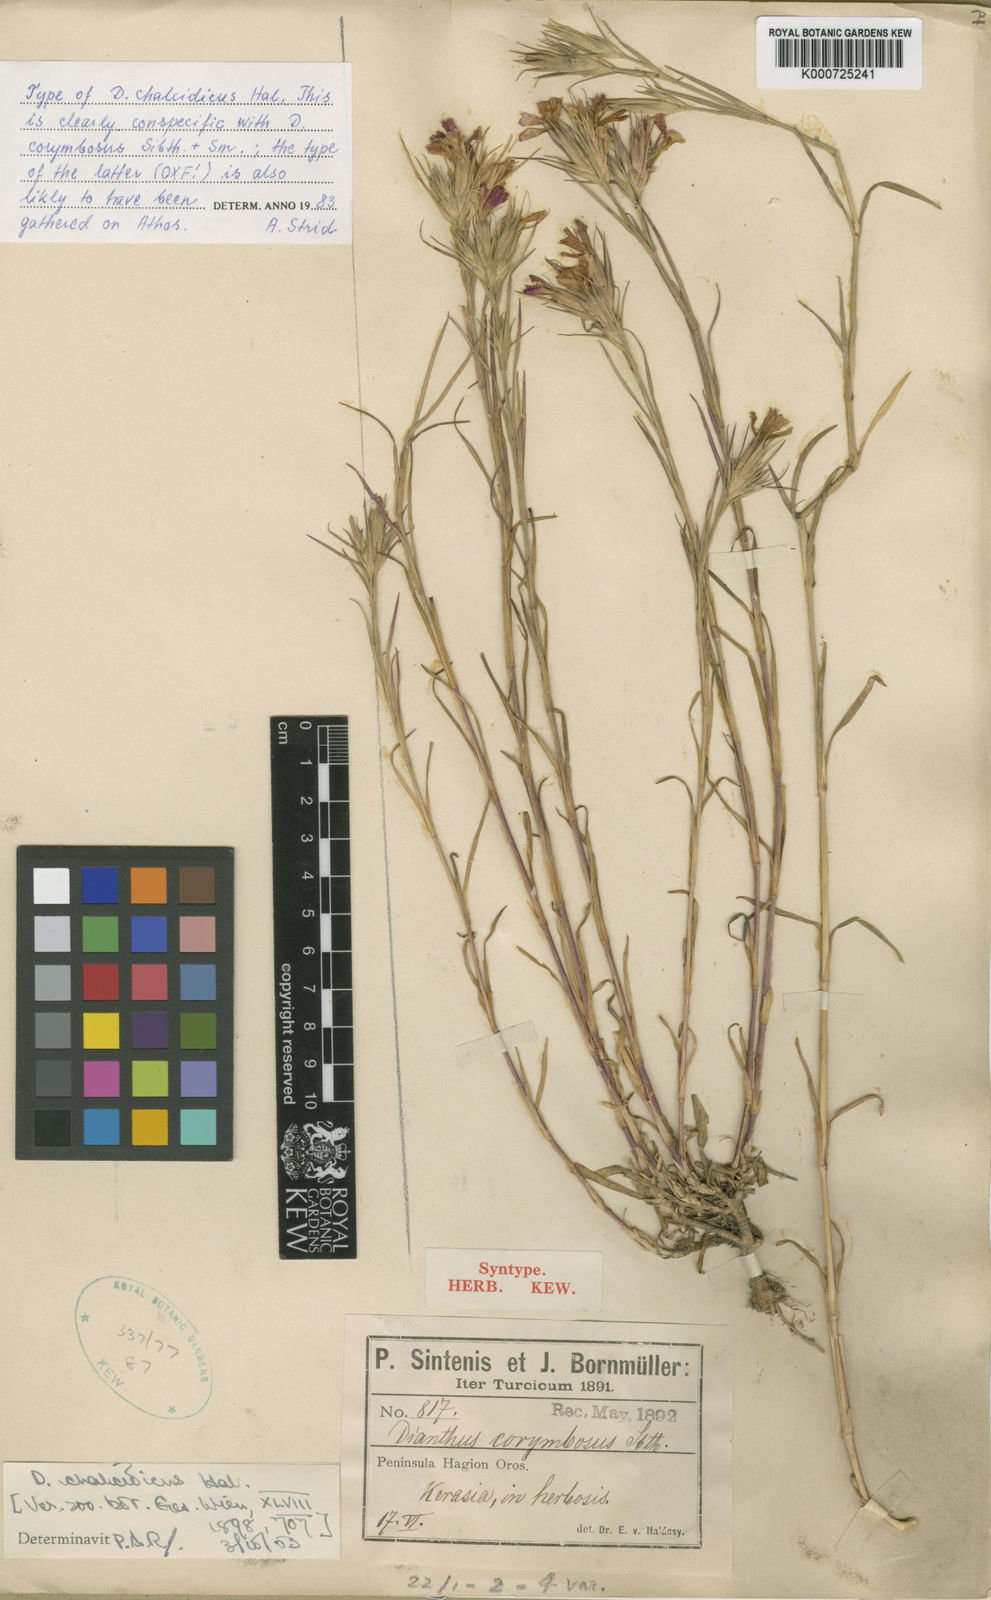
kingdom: Plantae
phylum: Tracheophyta
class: Magnoliopsida
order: Caryophyllales
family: Caryophyllaceae
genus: Dianthus
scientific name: Dianthus
